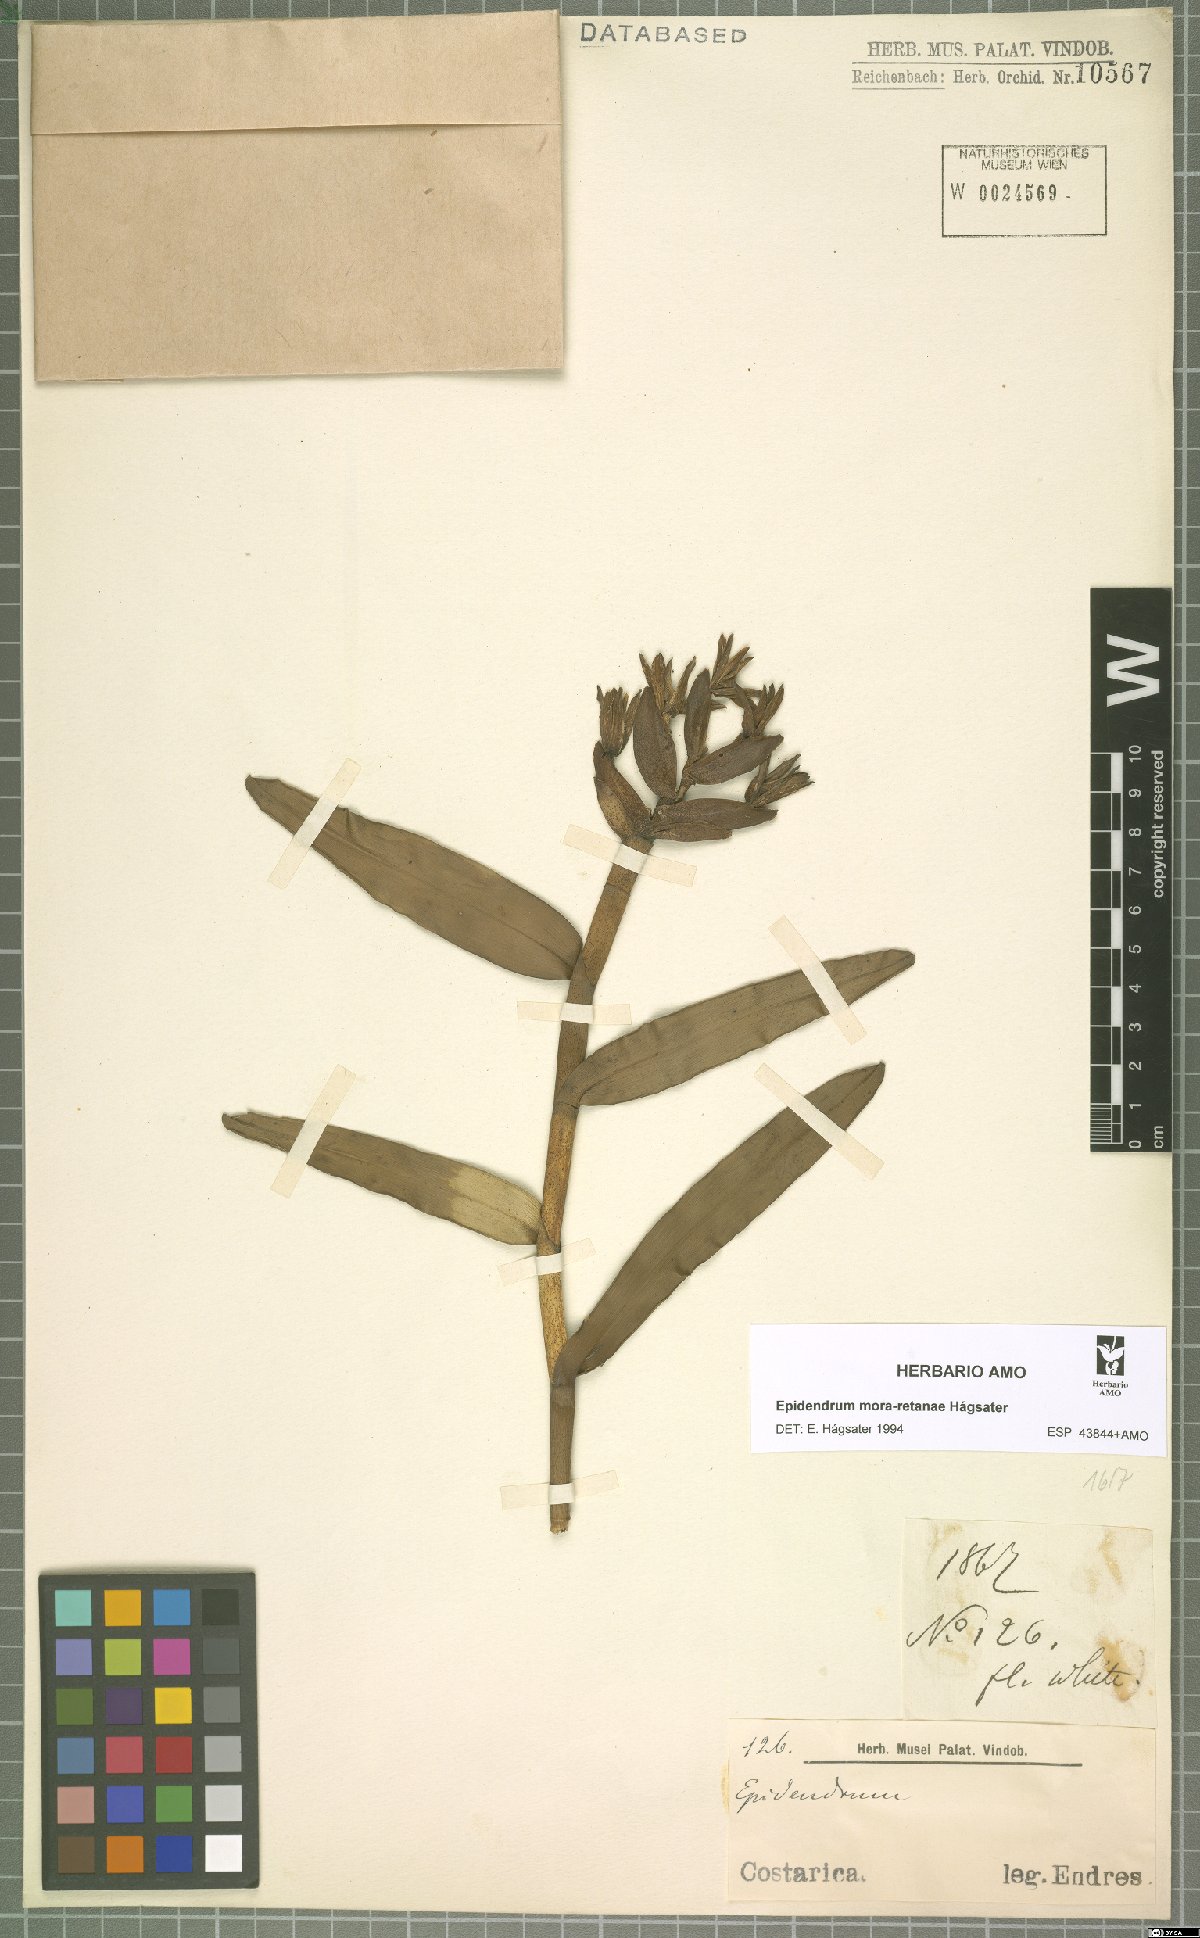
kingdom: Plantae
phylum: Tracheophyta
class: Liliopsida
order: Asparagales
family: Orchidaceae
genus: Epidendrum
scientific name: Epidendrum mora-retanae
